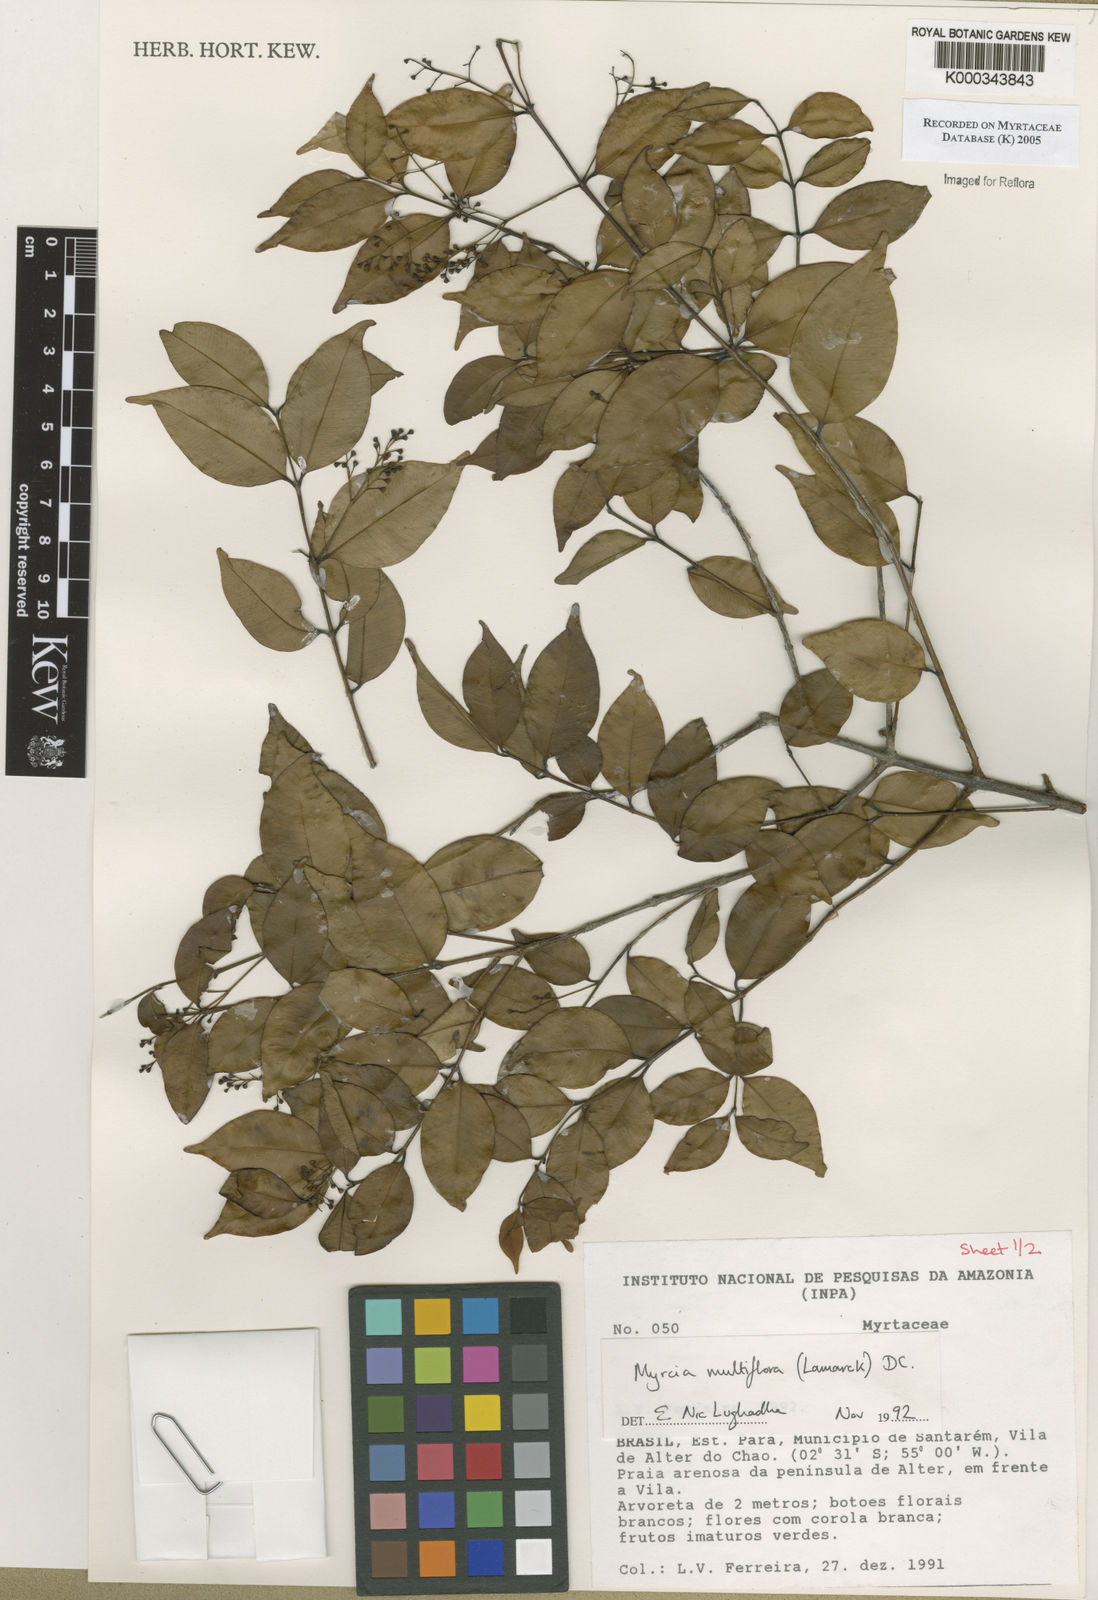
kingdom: Plantae
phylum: Tracheophyta
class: Magnoliopsida
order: Myrtales
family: Myrtaceae
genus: Myrcia
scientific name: Myrcia multiflora
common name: Pedra hume
